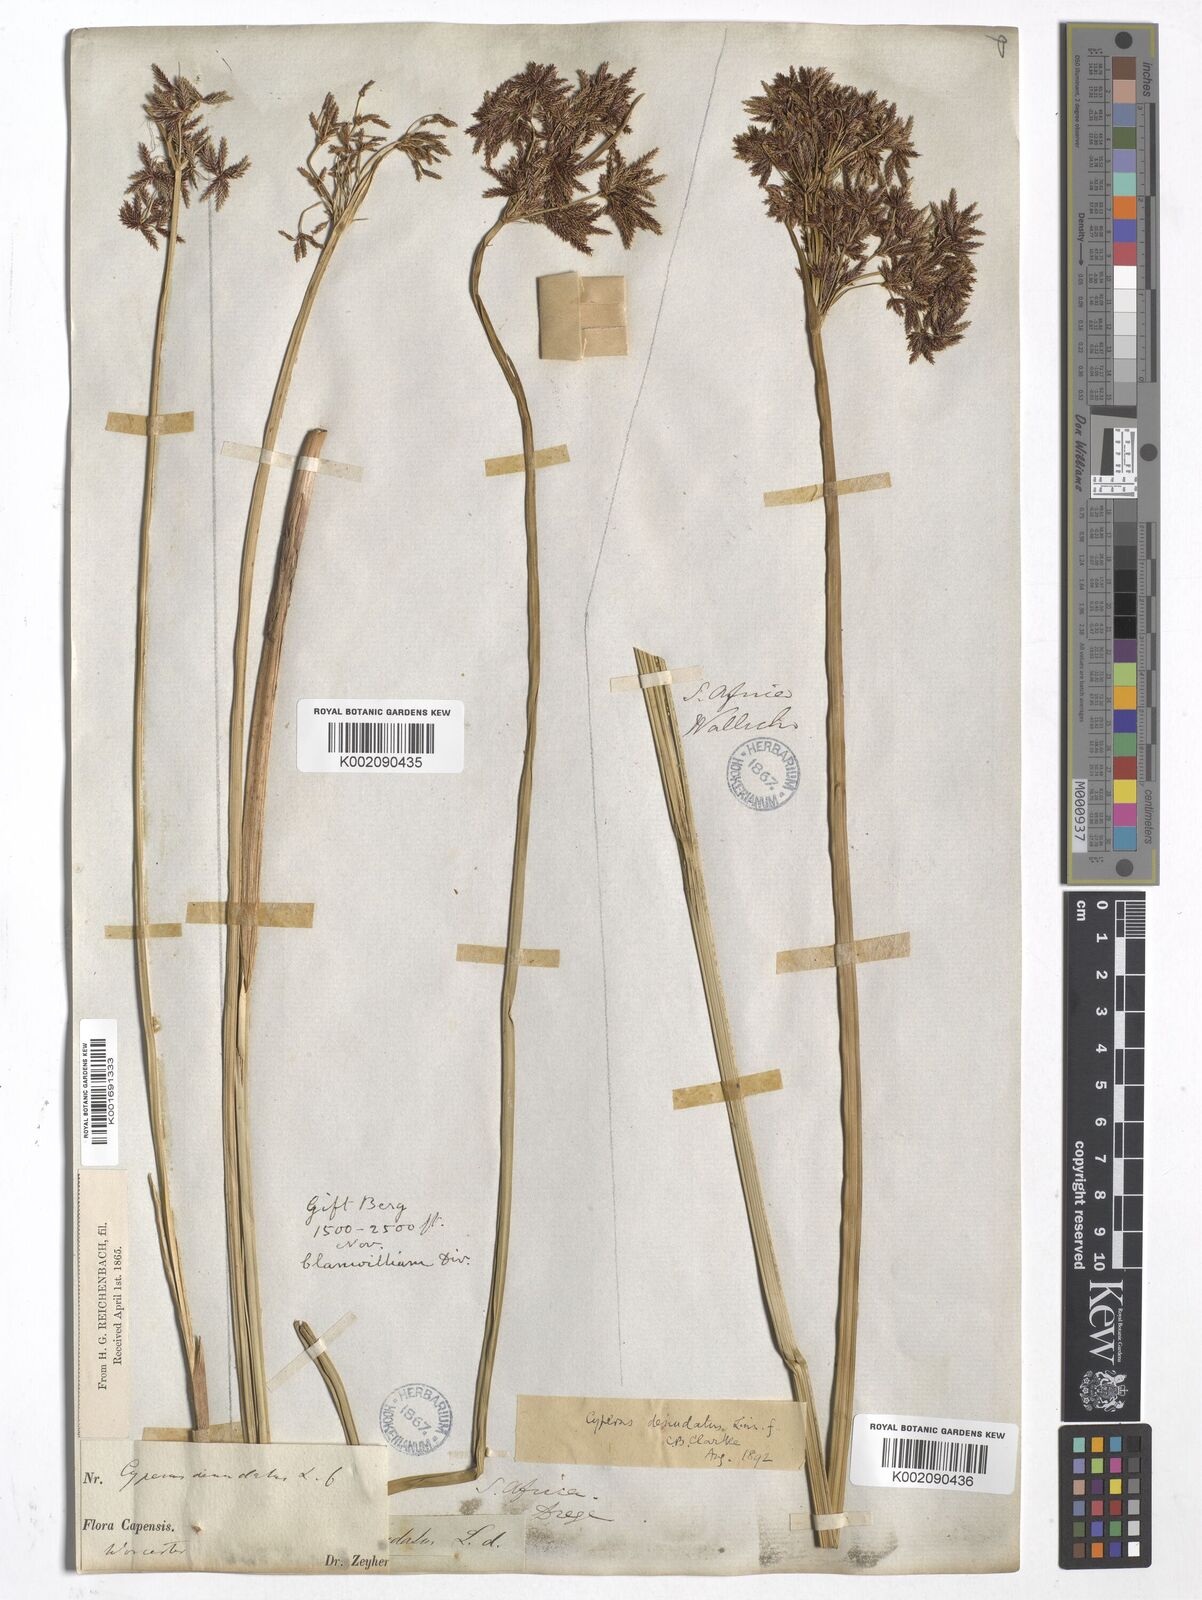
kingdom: Plantae
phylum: Tracheophyta
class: Liliopsida
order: Poales
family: Cyperaceae
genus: Cyperus
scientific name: Cyperus denudatus
